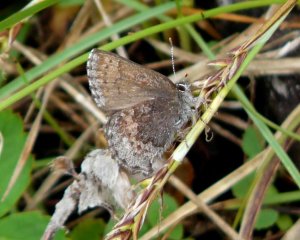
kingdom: Animalia
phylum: Arthropoda
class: Insecta
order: Lepidoptera
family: Lycaenidae
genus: Callophrys
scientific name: Callophrys polios
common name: Hoary Elfin
